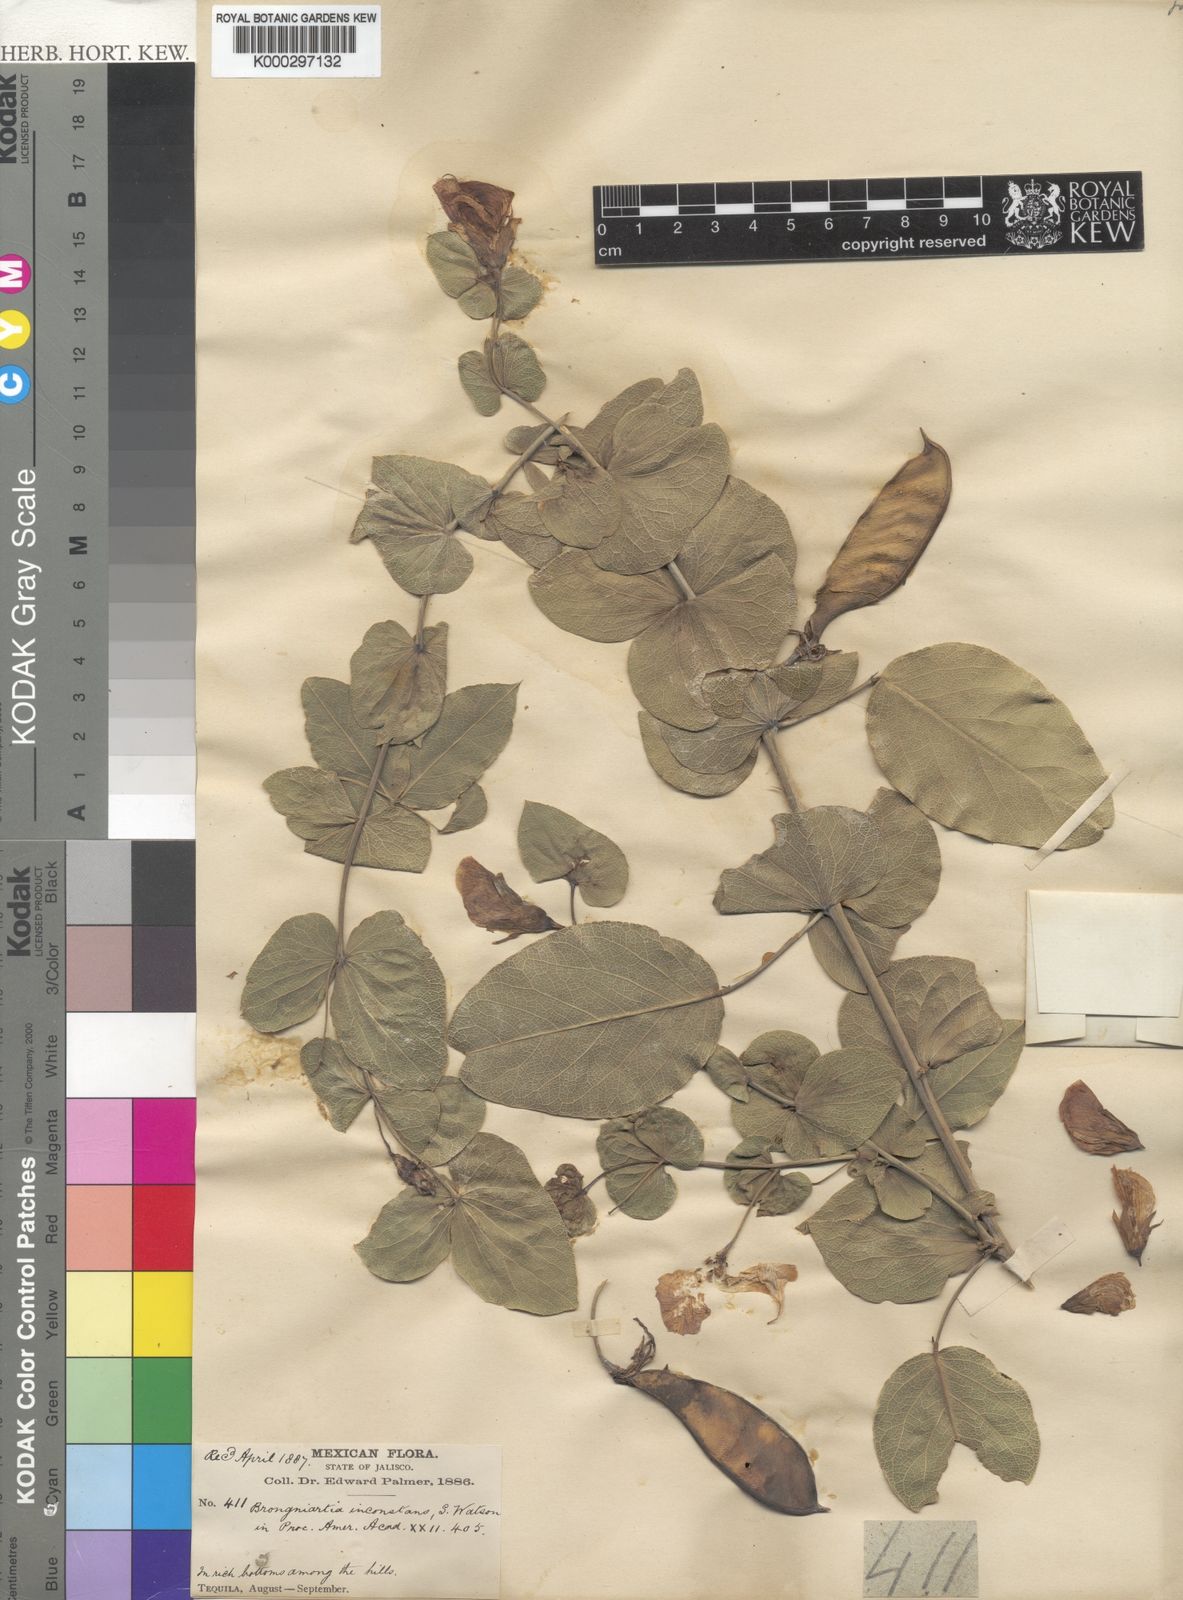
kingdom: Plantae
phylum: Tracheophyta
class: Magnoliopsida
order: Fabales
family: Fabaceae
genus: Brongniartia
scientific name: Brongniartia inconstans
